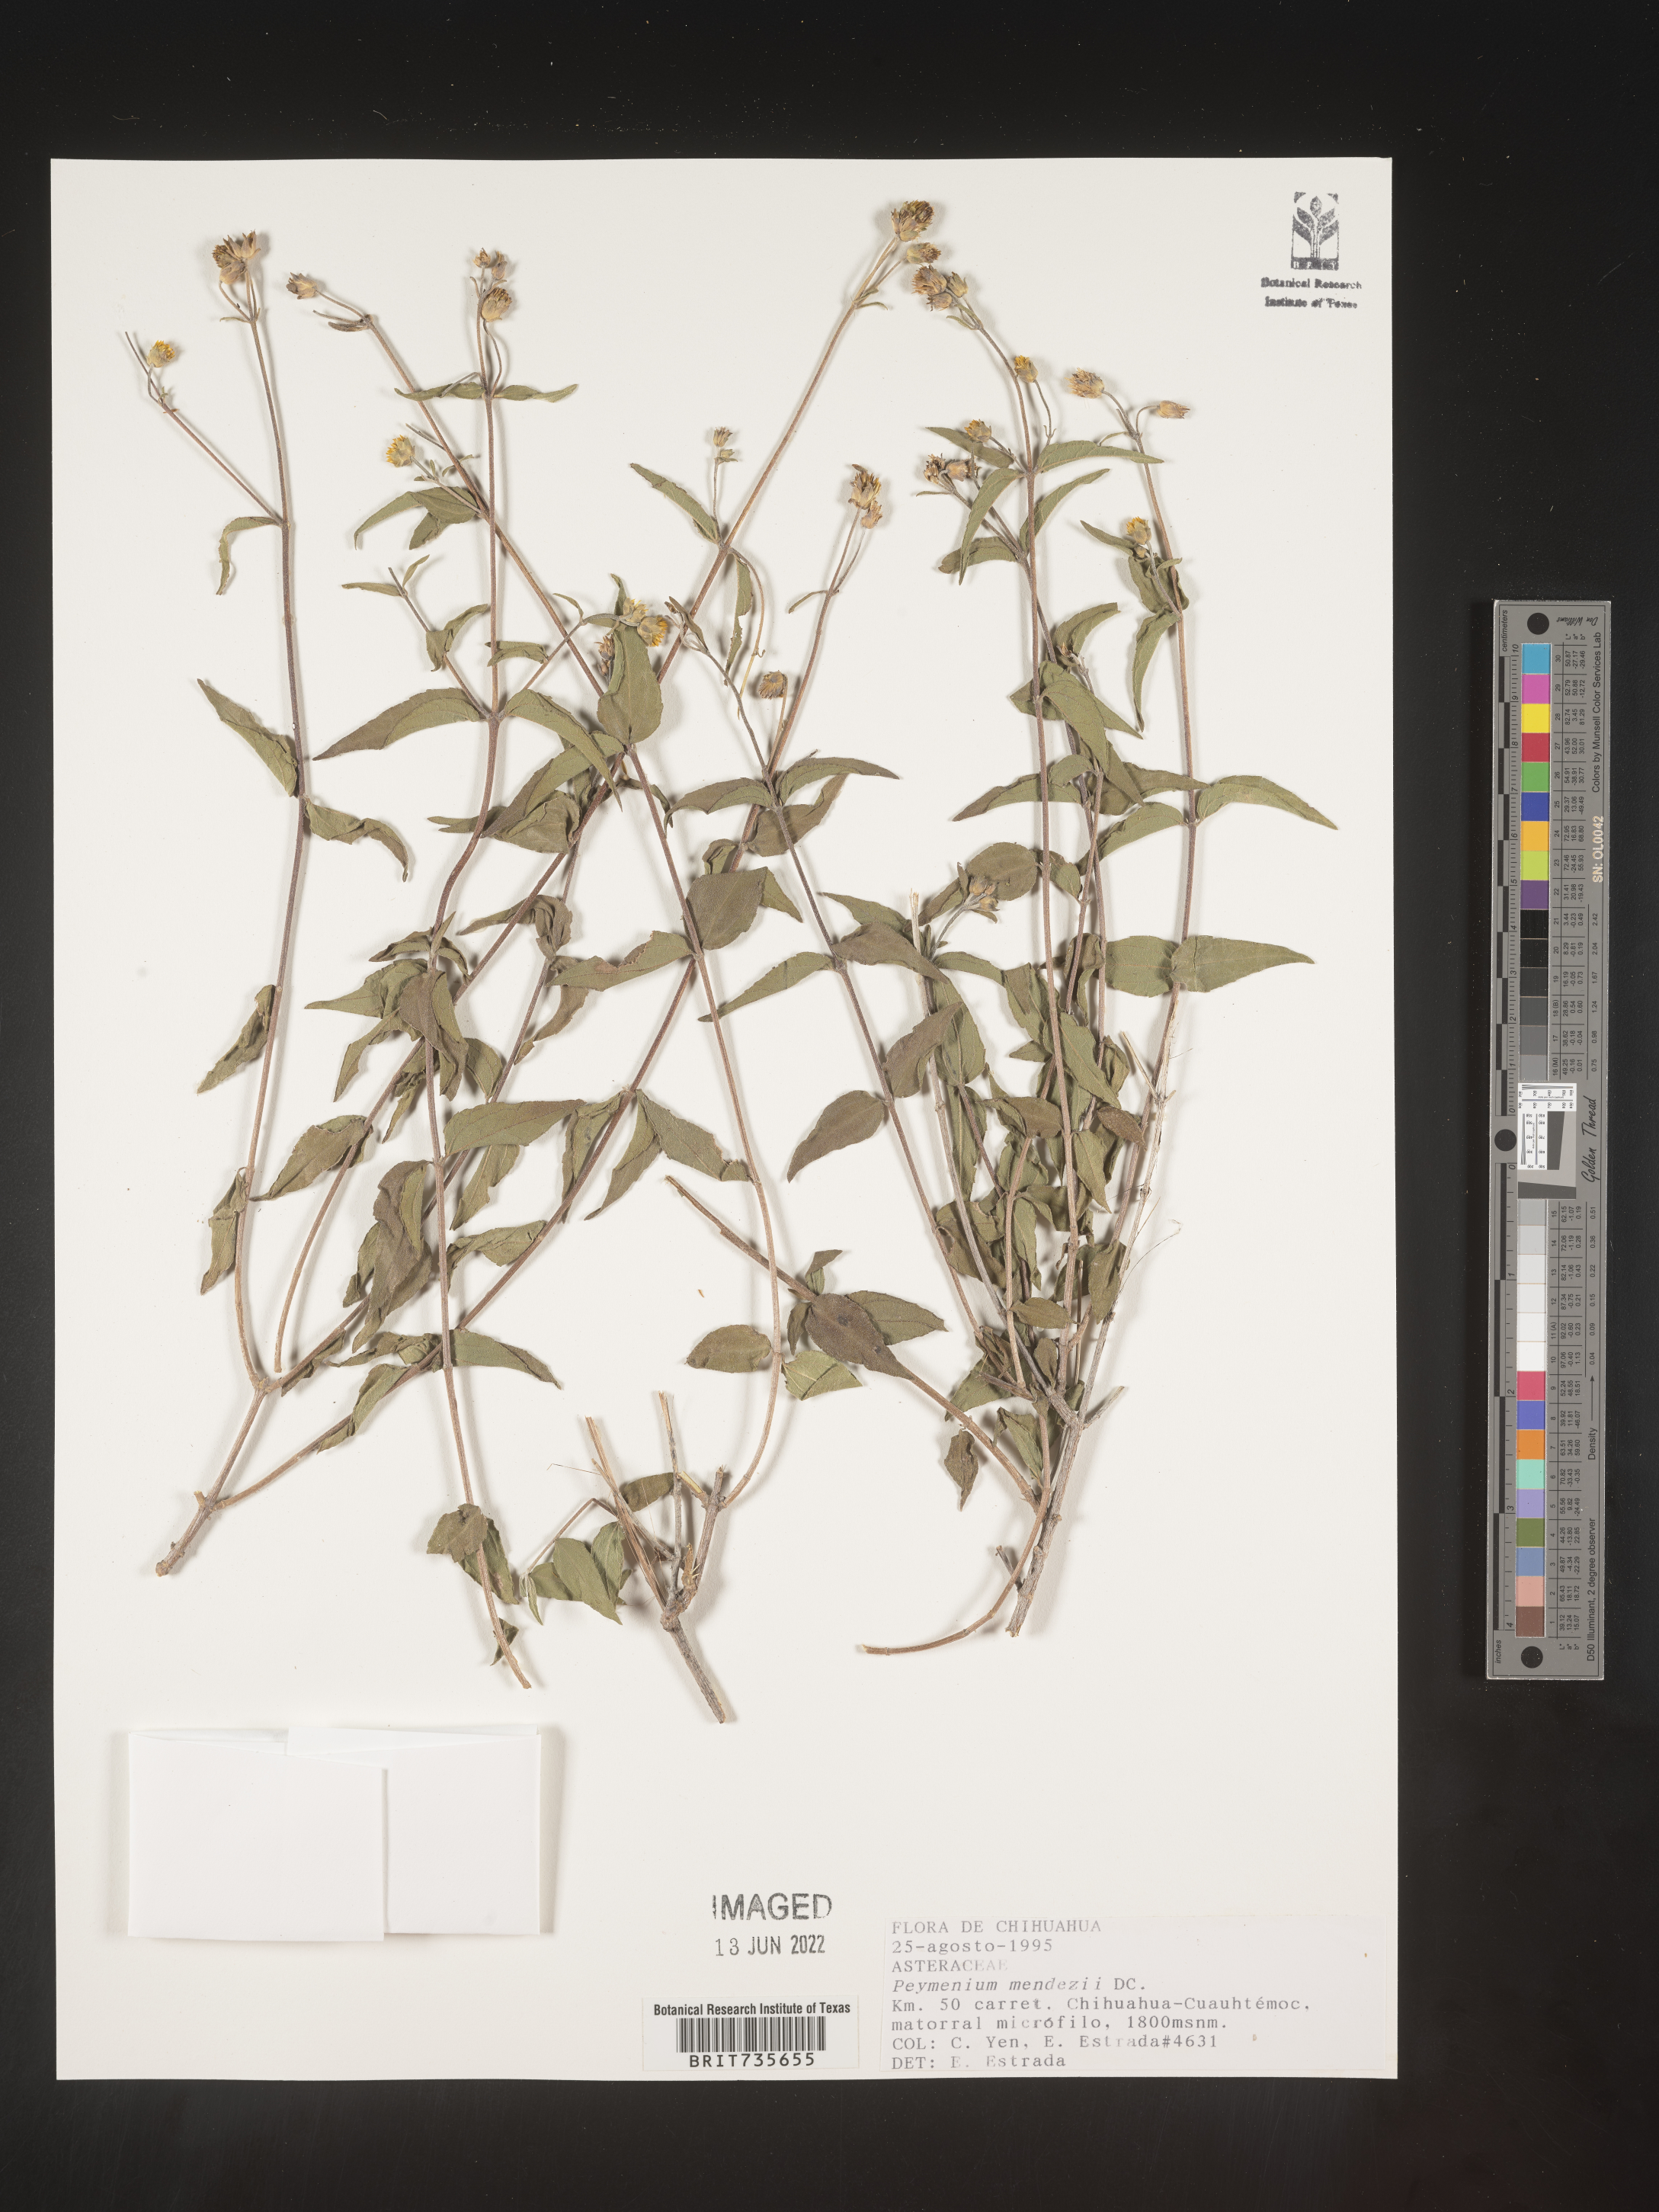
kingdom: Plantae
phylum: Tracheophyta
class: Magnoliopsida
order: Asterales
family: Asteraceae
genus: Perymenium
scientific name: Perymenium
